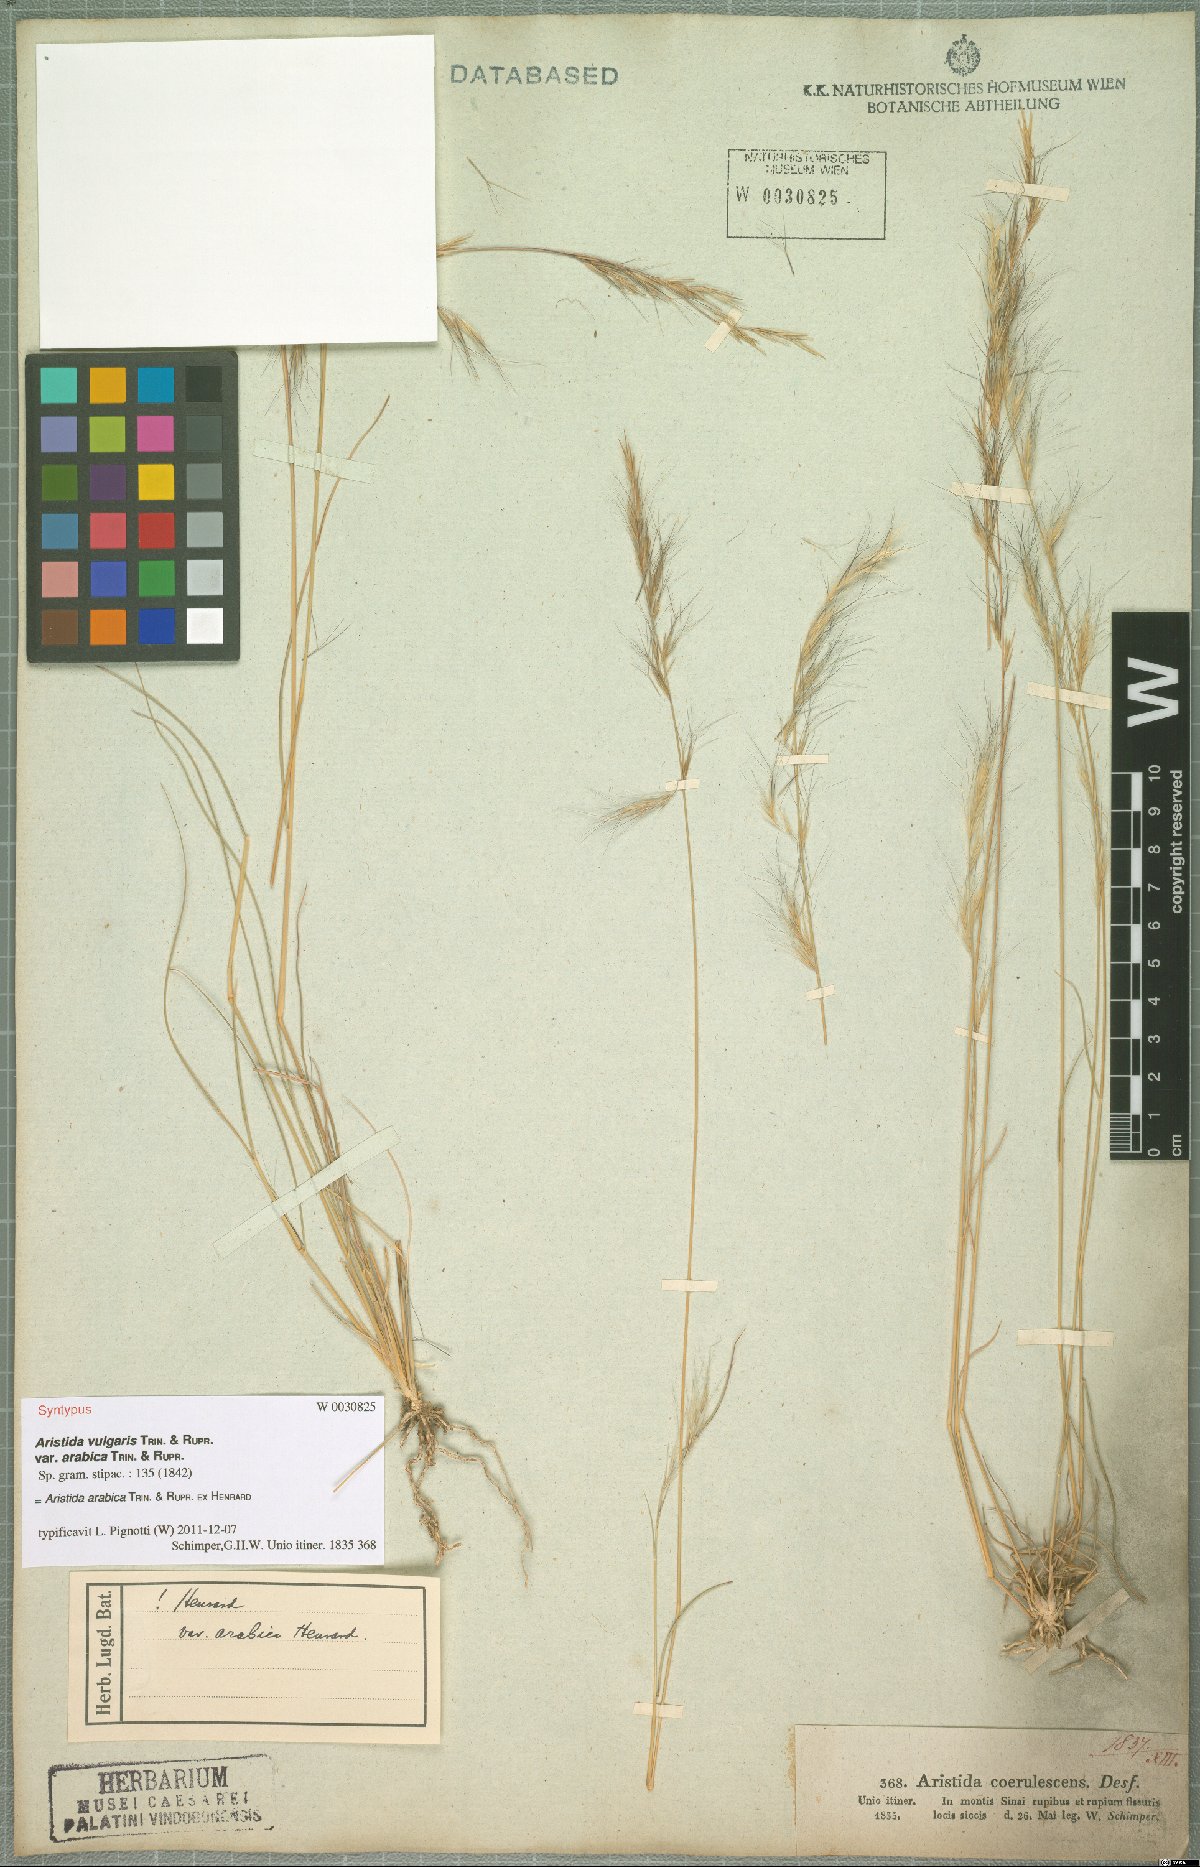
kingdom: Plantae
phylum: Tracheophyta
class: Liliopsida
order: Poales
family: Poaceae
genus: Aristida
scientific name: Aristida arabica
